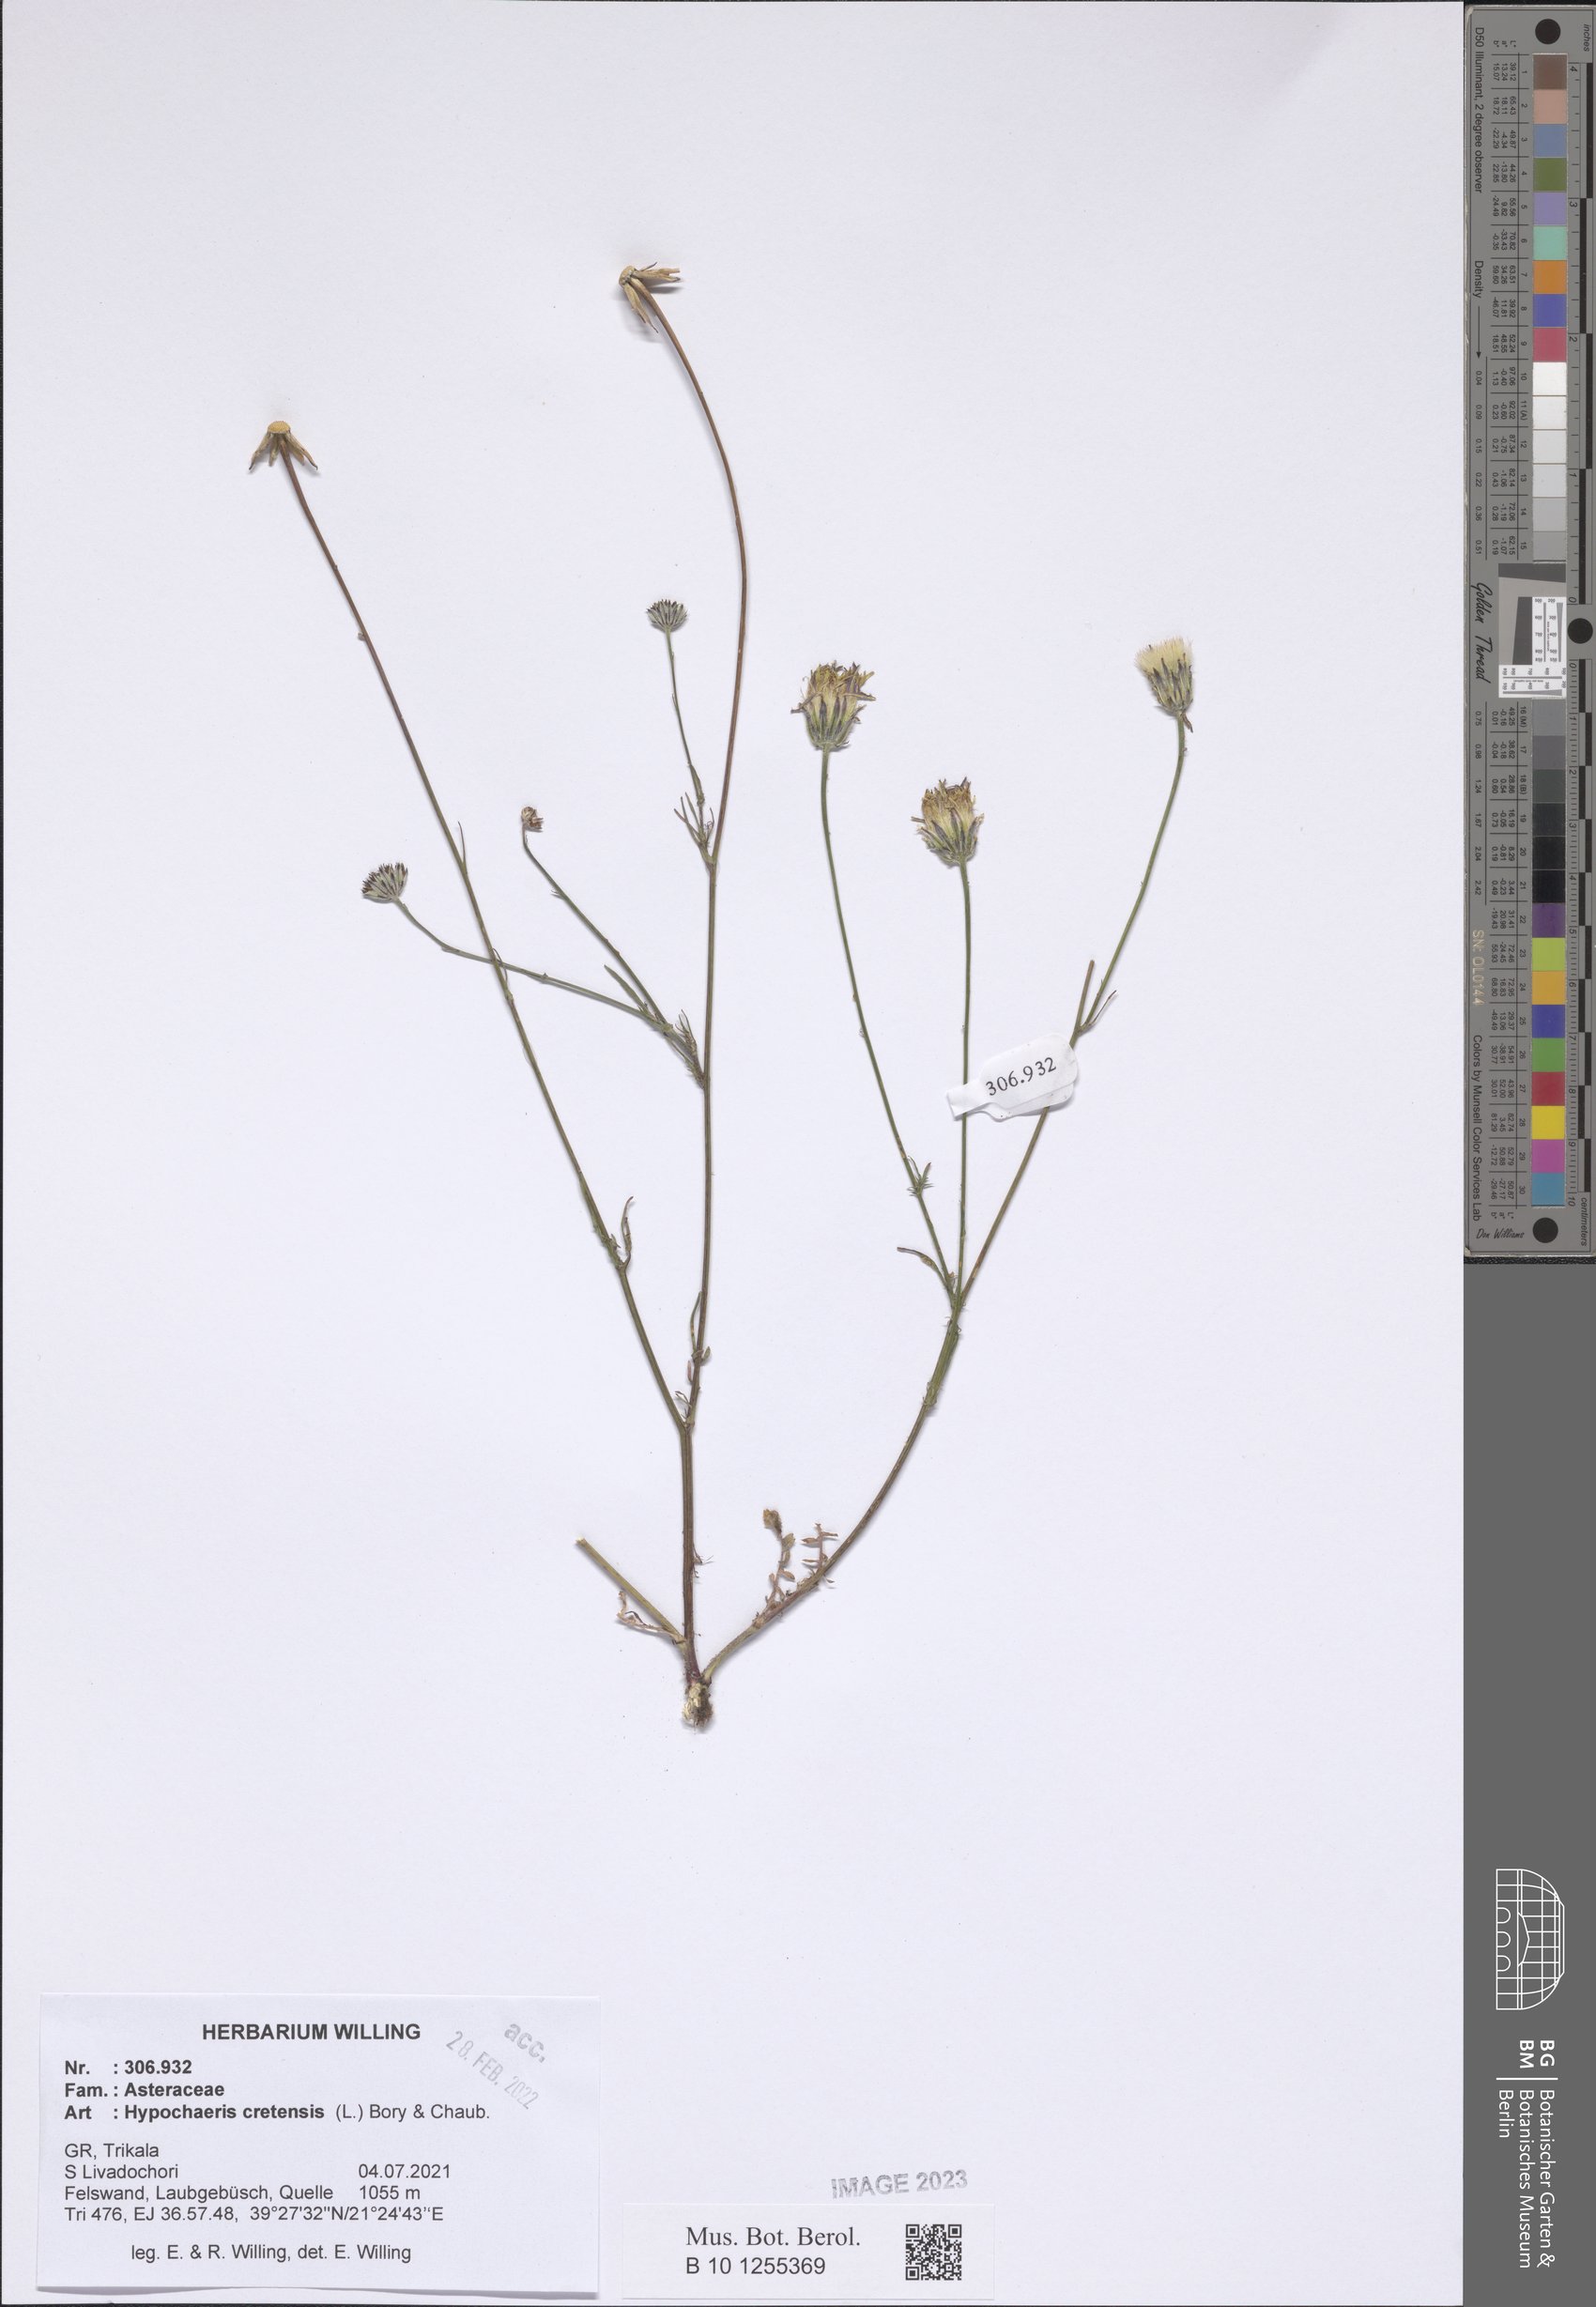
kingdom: Plantae
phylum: Tracheophyta
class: Magnoliopsida
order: Asterales
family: Asteraceae
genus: Hypochaeris
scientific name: Hypochaeris cretensis
